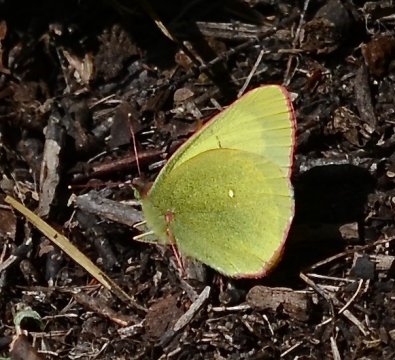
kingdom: Animalia
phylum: Arthropoda
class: Insecta
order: Lepidoptera
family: Pieridae
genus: Colias
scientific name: Colias palaeno
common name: Chippewa Sulphur
